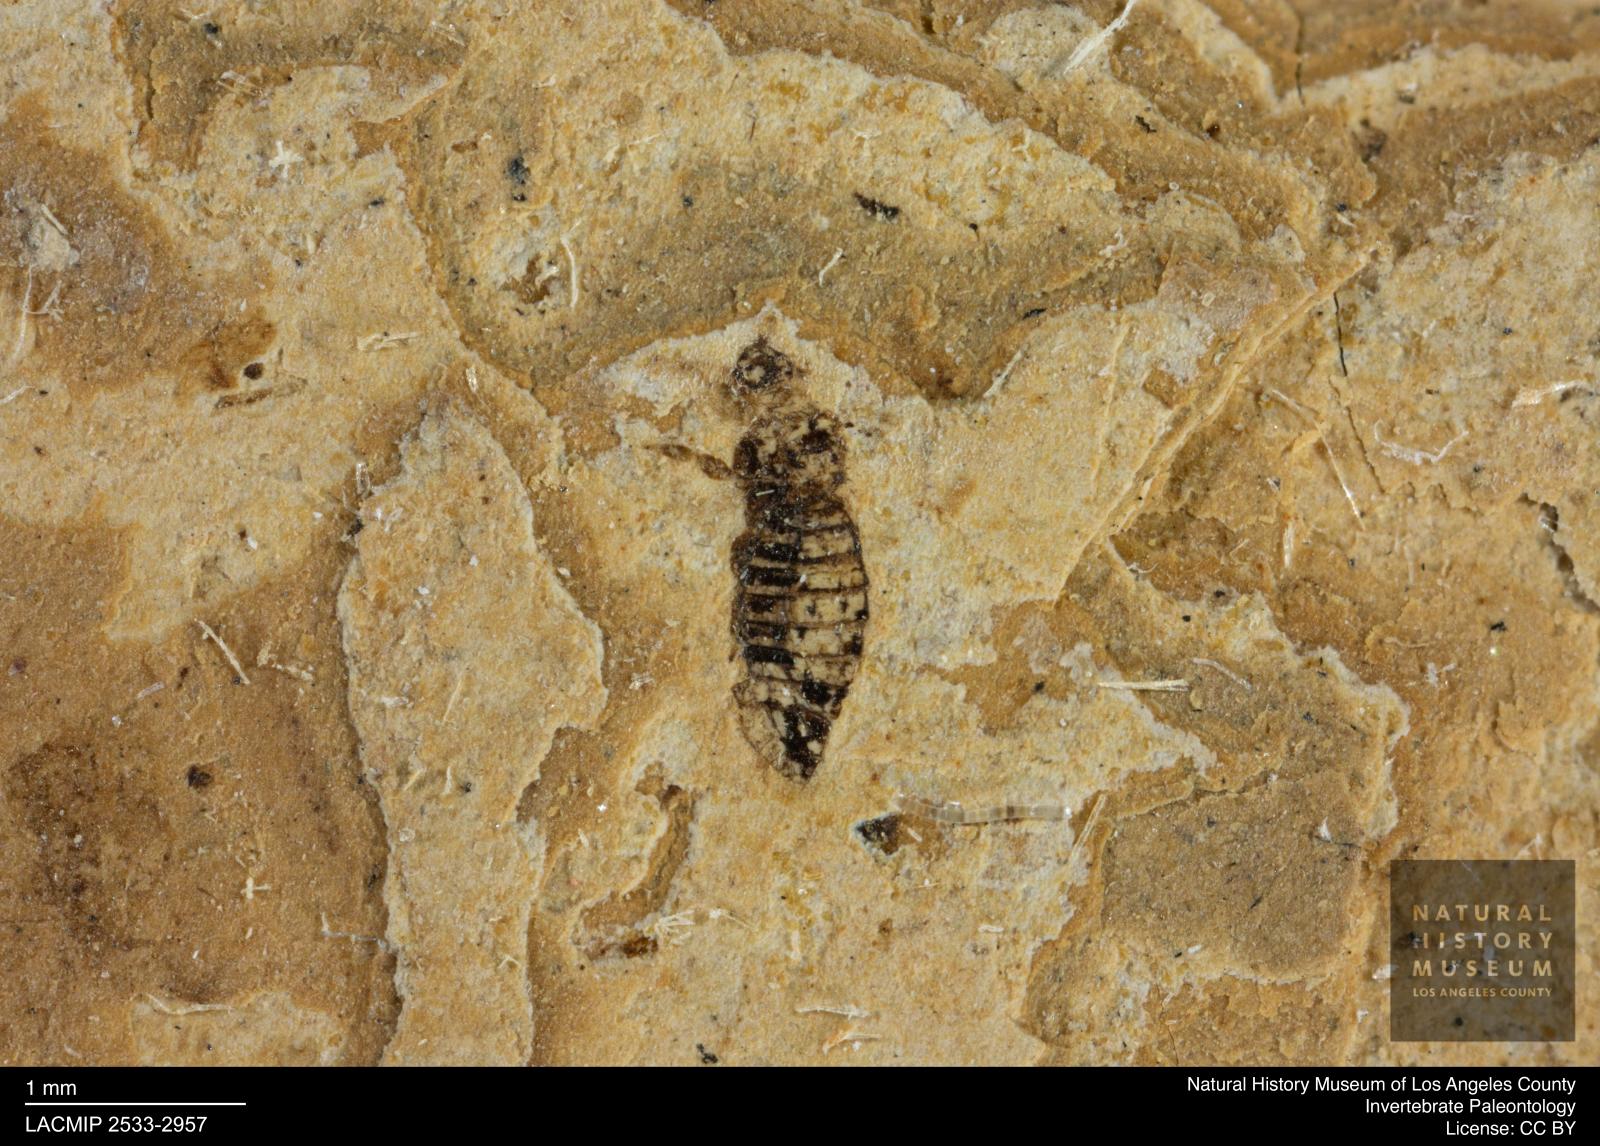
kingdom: Animalia
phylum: Arthropoda
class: Insecta
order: Thysanoptera
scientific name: Thysanoptera
